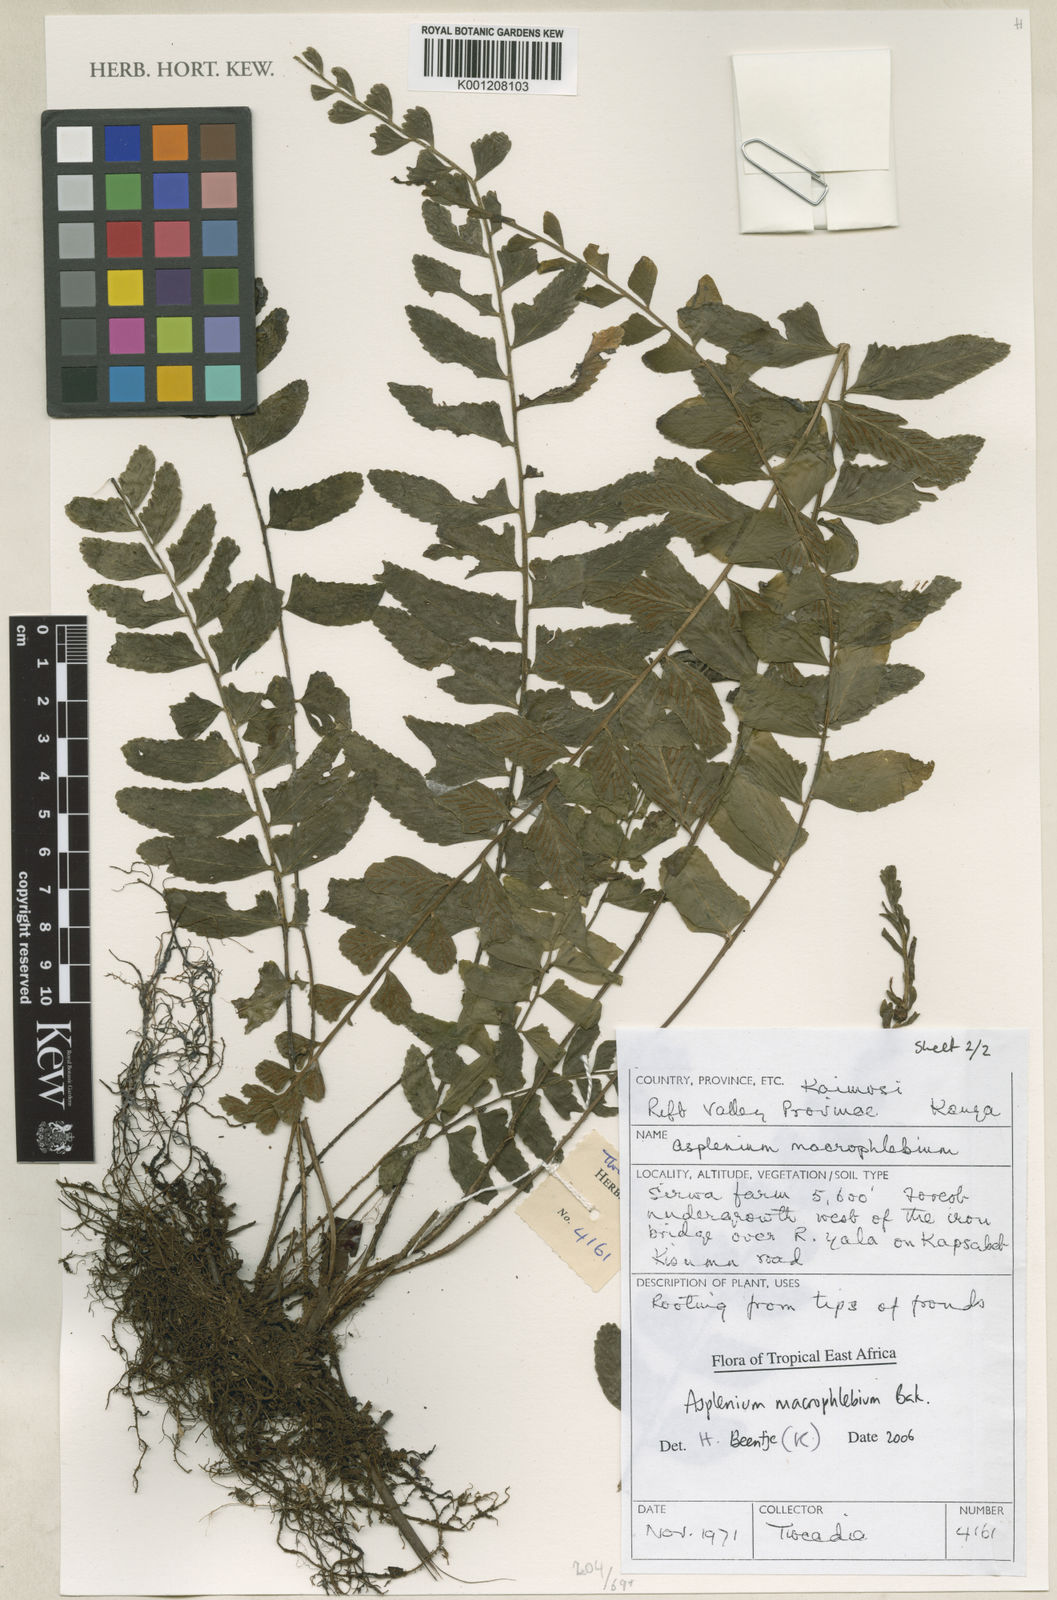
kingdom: Plantae
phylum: Tracheophyta
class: Polypodiopsida
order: Polypodiales
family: Aspleniaceae
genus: Asplenium
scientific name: Asplenium macrophlebium
